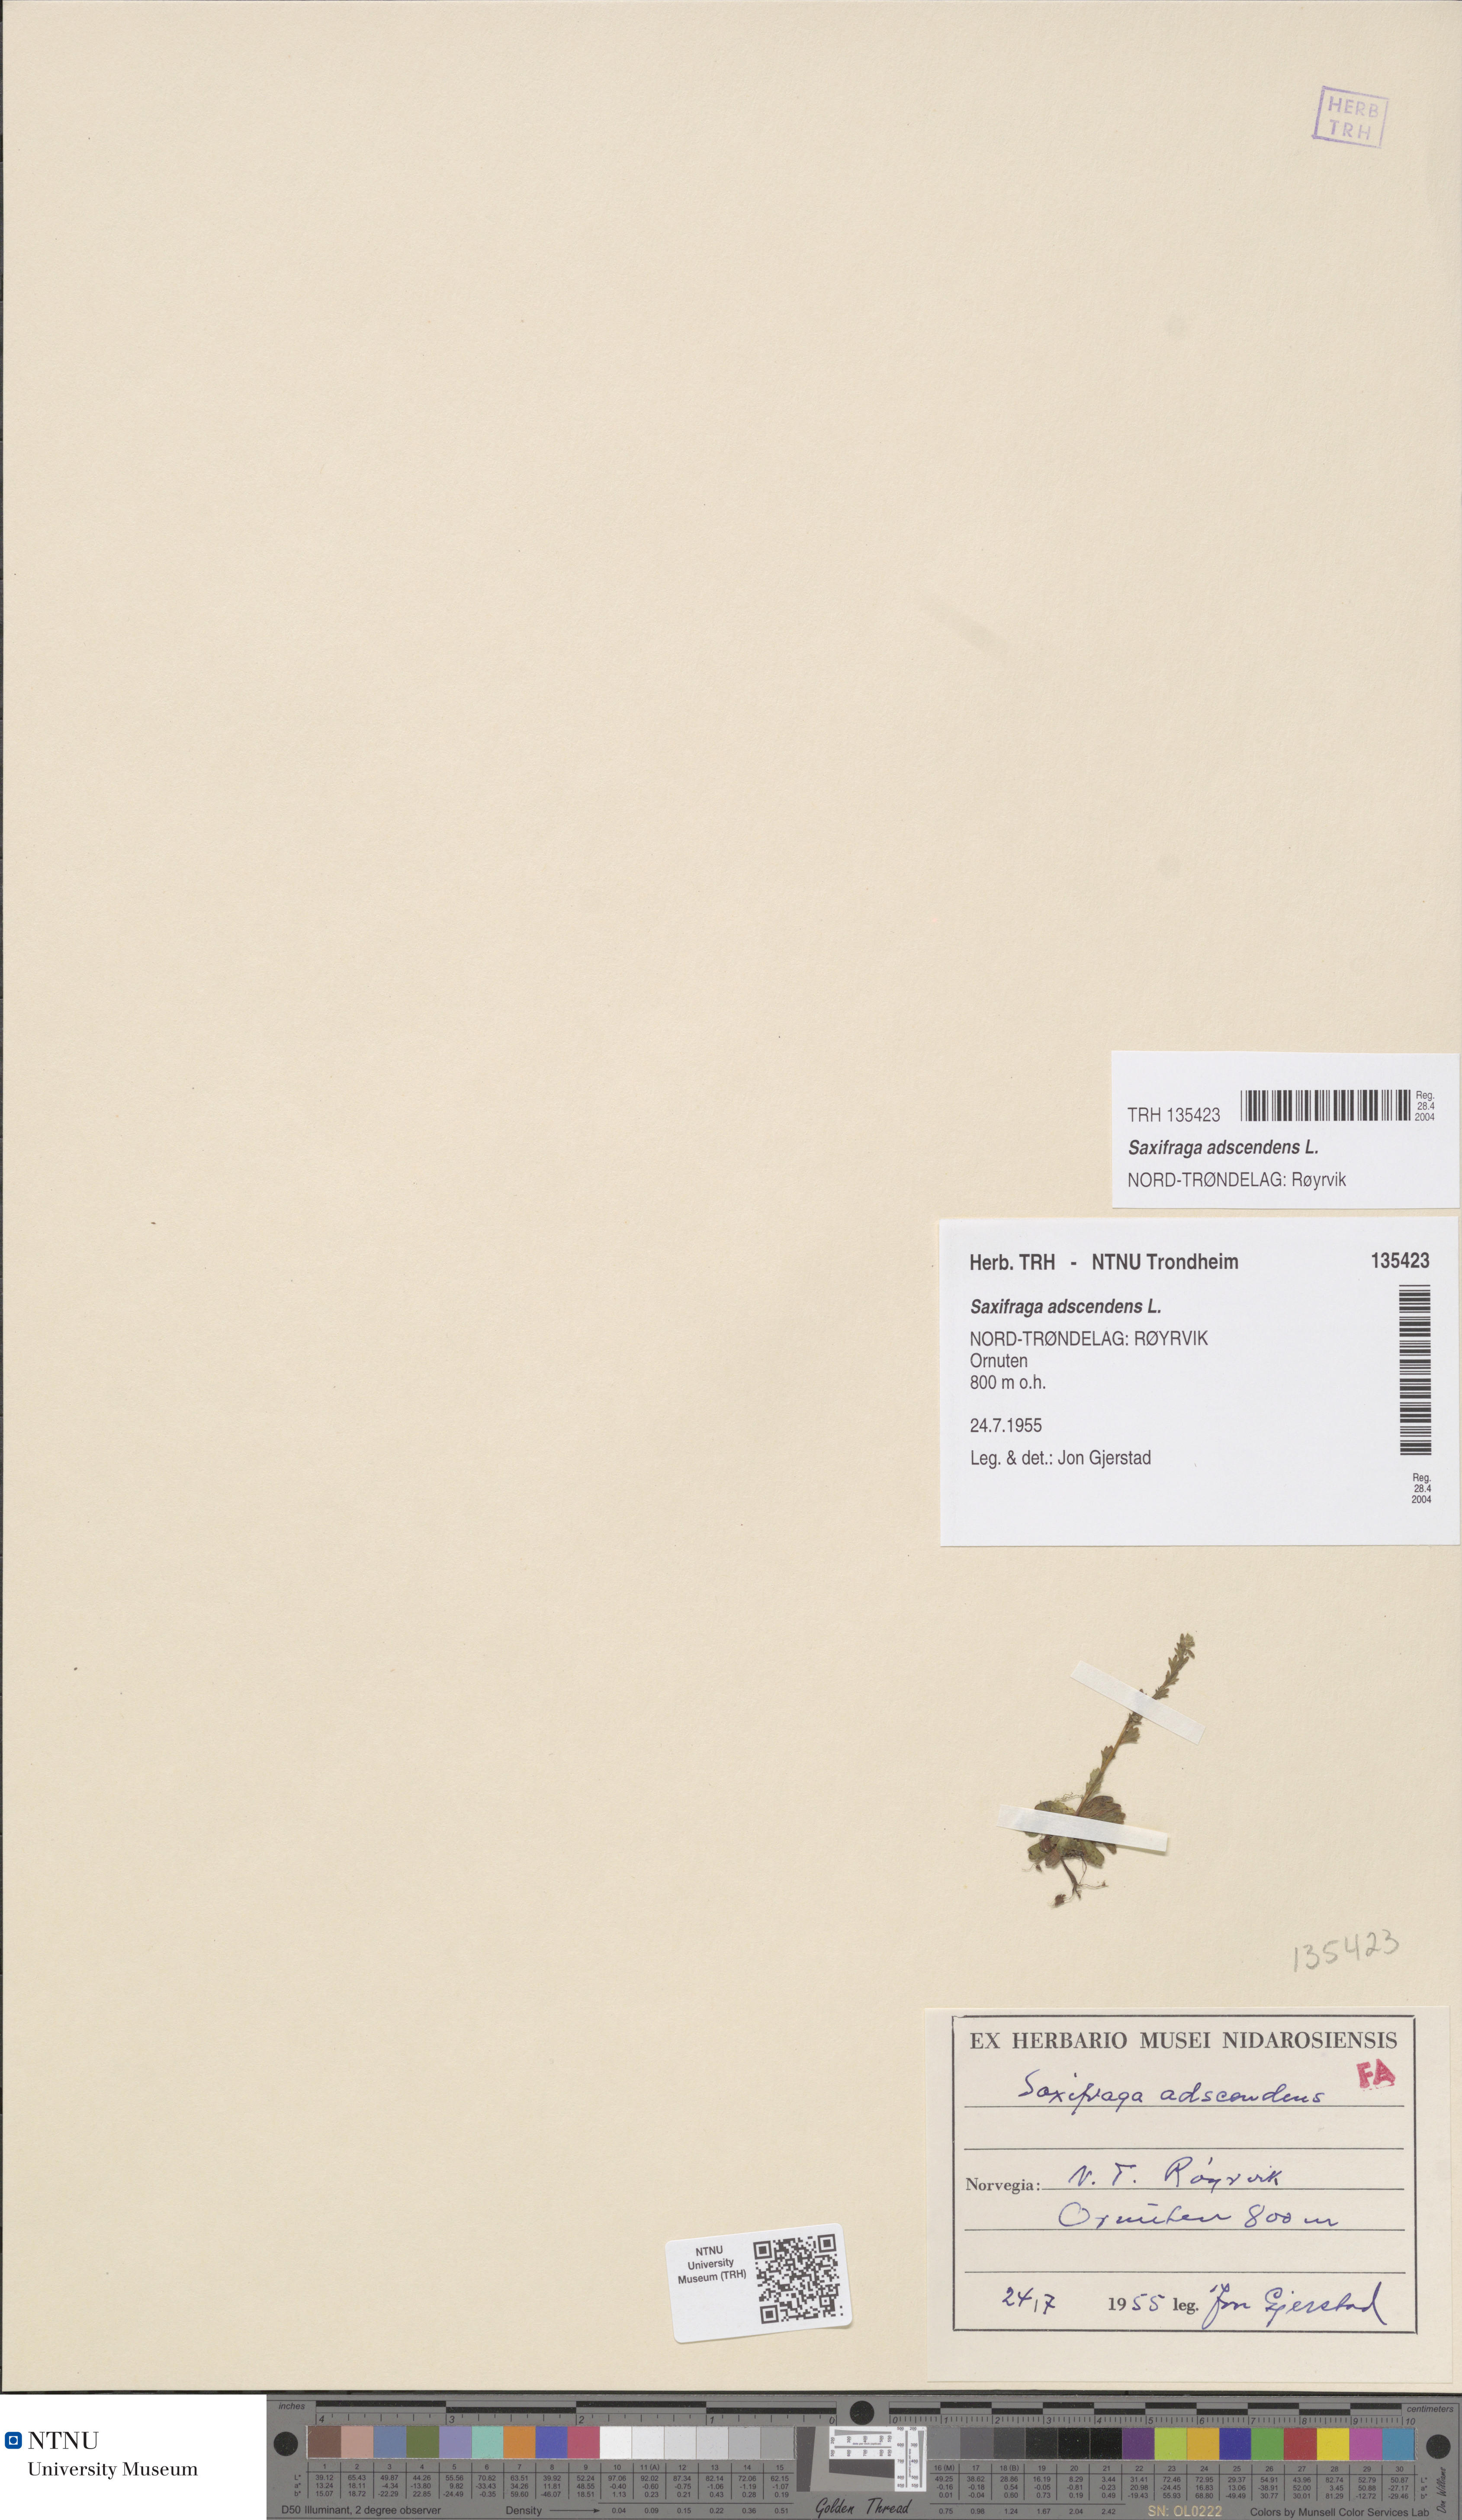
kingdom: Plantae
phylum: Tracheophyta
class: Magnoliopsida
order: Saxifragales
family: Saxifragaceae
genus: Saxifraga
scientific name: Saxifraga adscendens
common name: Ascending saxifrage
